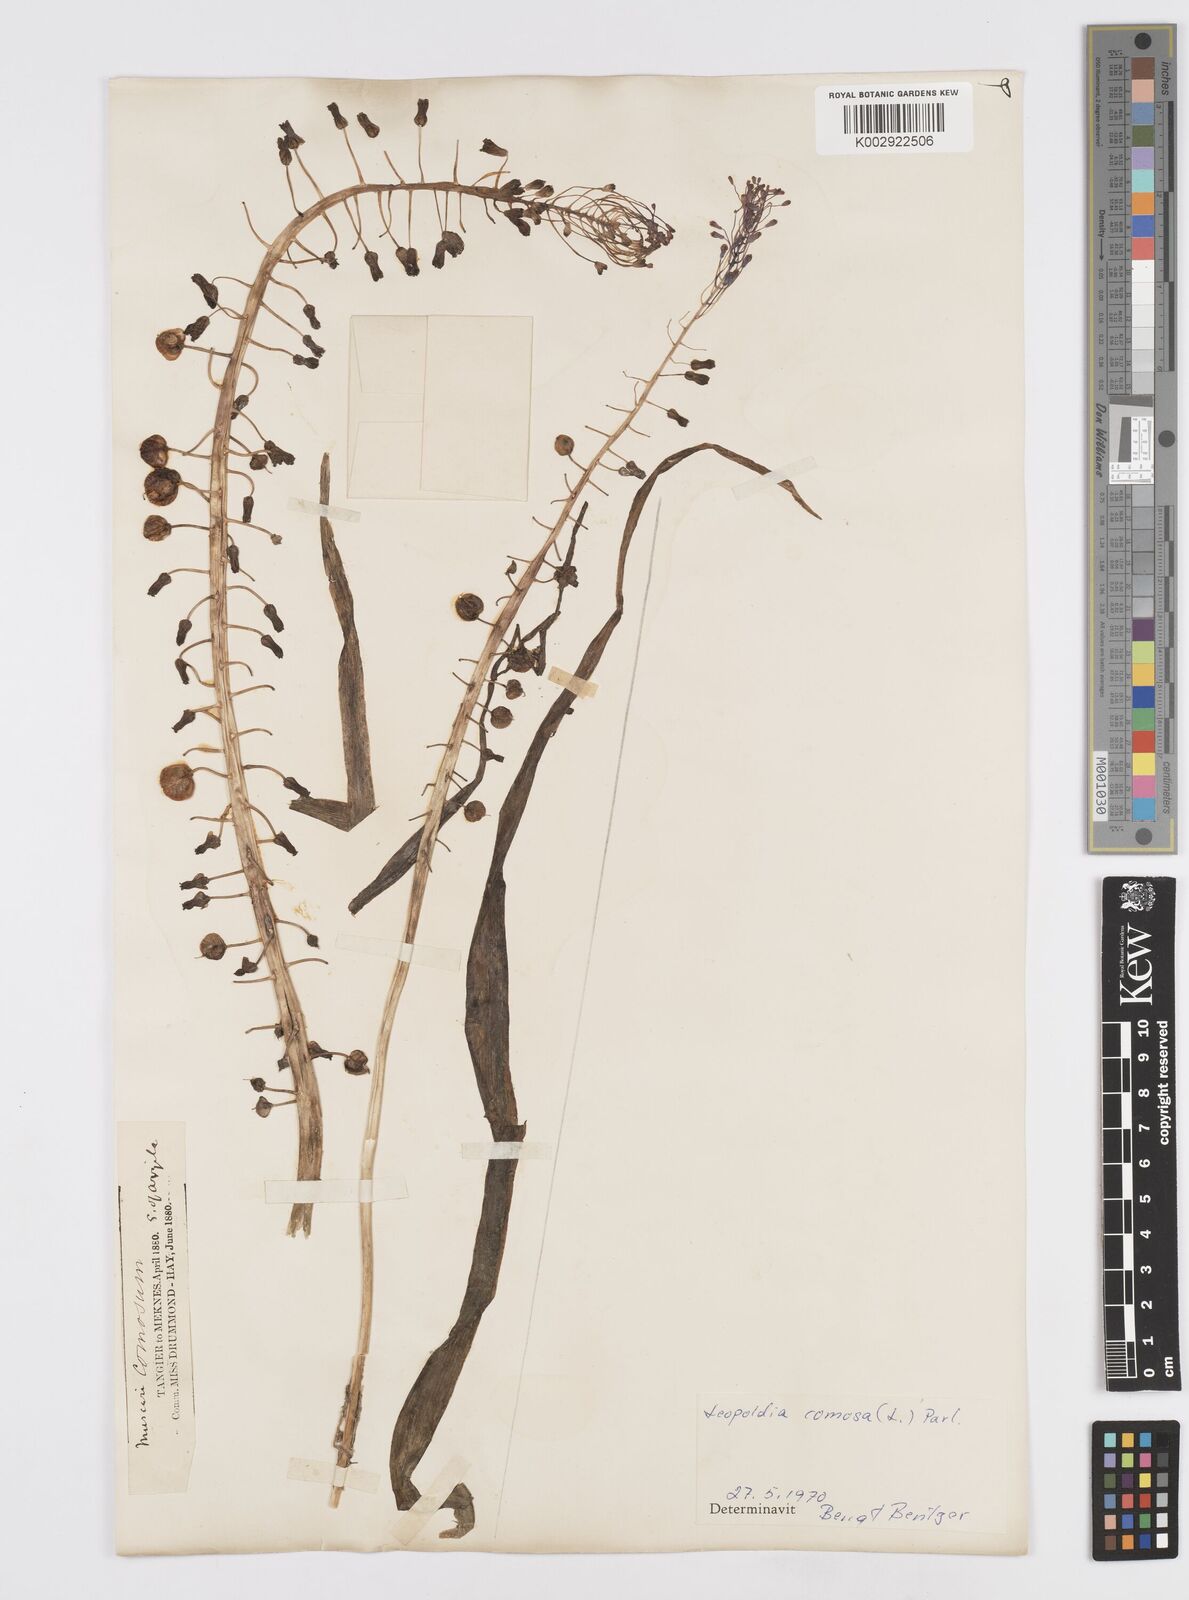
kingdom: Plantae
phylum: Tracheophyta
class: Liliopsida
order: Asparagales
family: Asparagaceae
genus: Muscari
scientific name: Muscari comosum
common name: Tassel hyacinth
